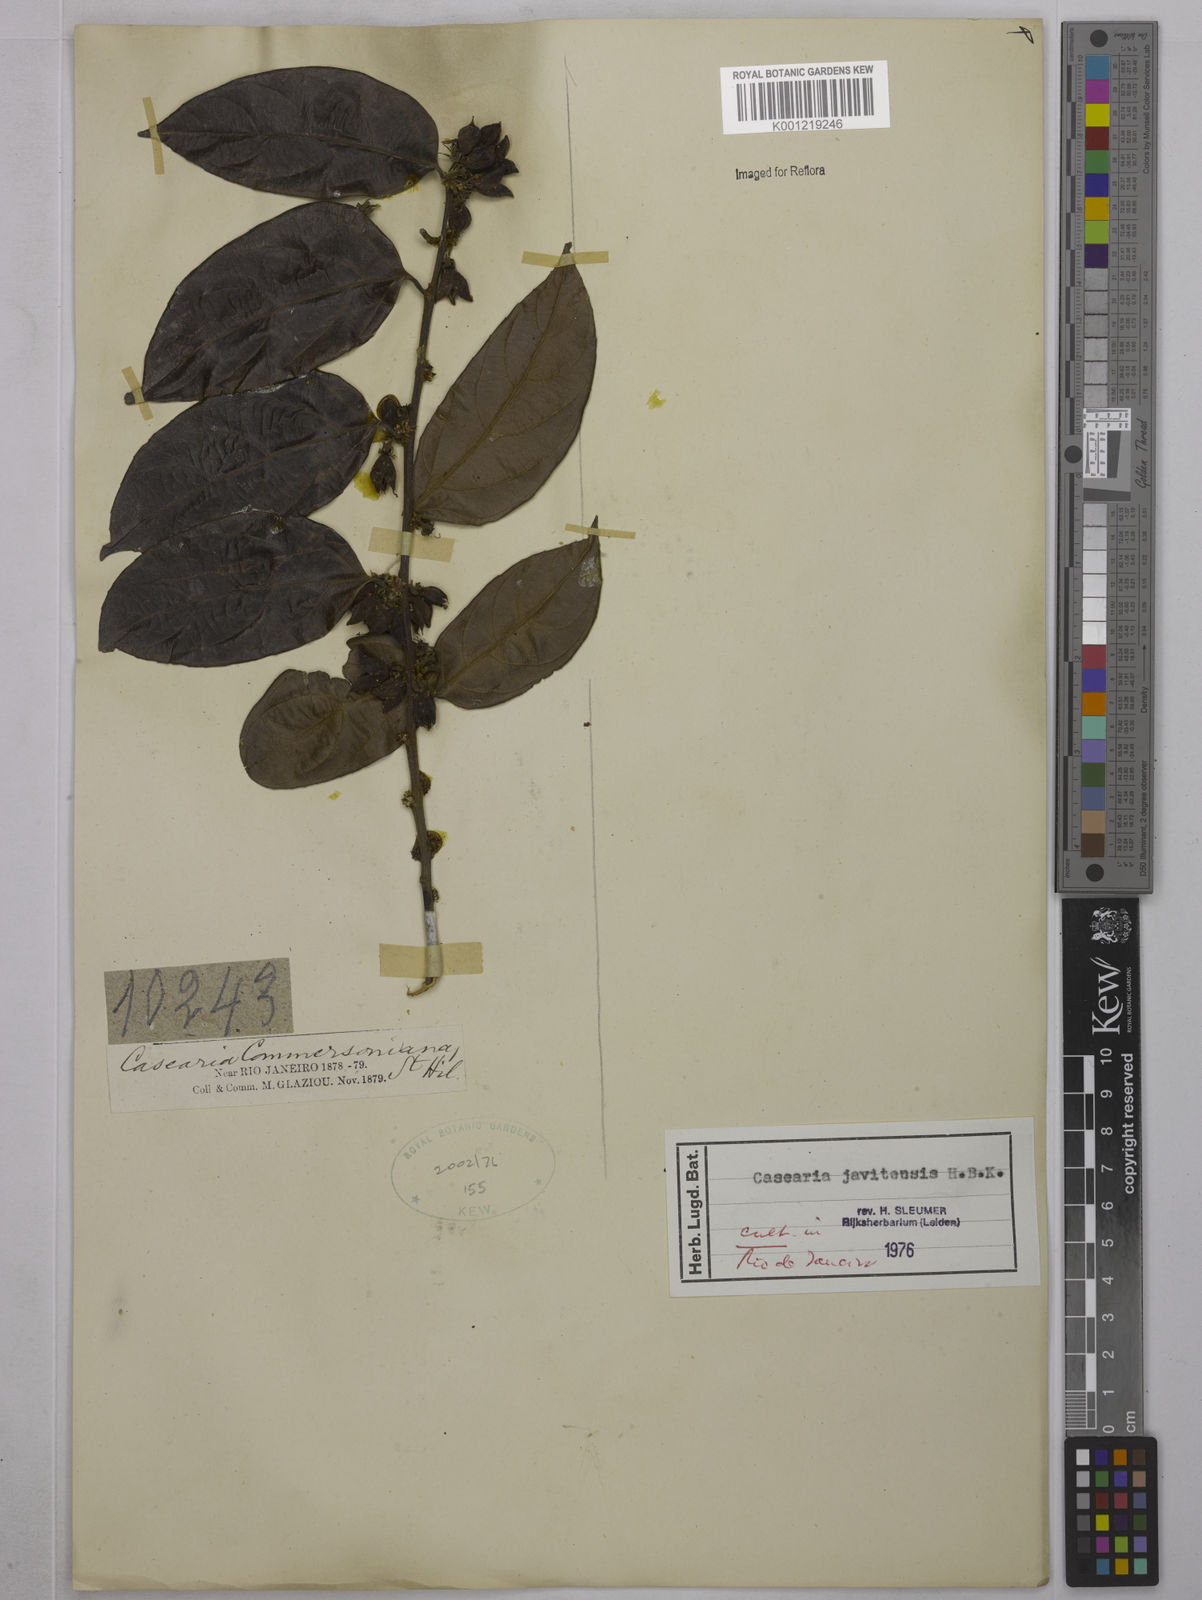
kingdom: Plantae
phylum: Tracheophyta
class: Magnoliopsida
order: Malpighiales
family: Salicaceae
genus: Piparea
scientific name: Piparea multiflora
